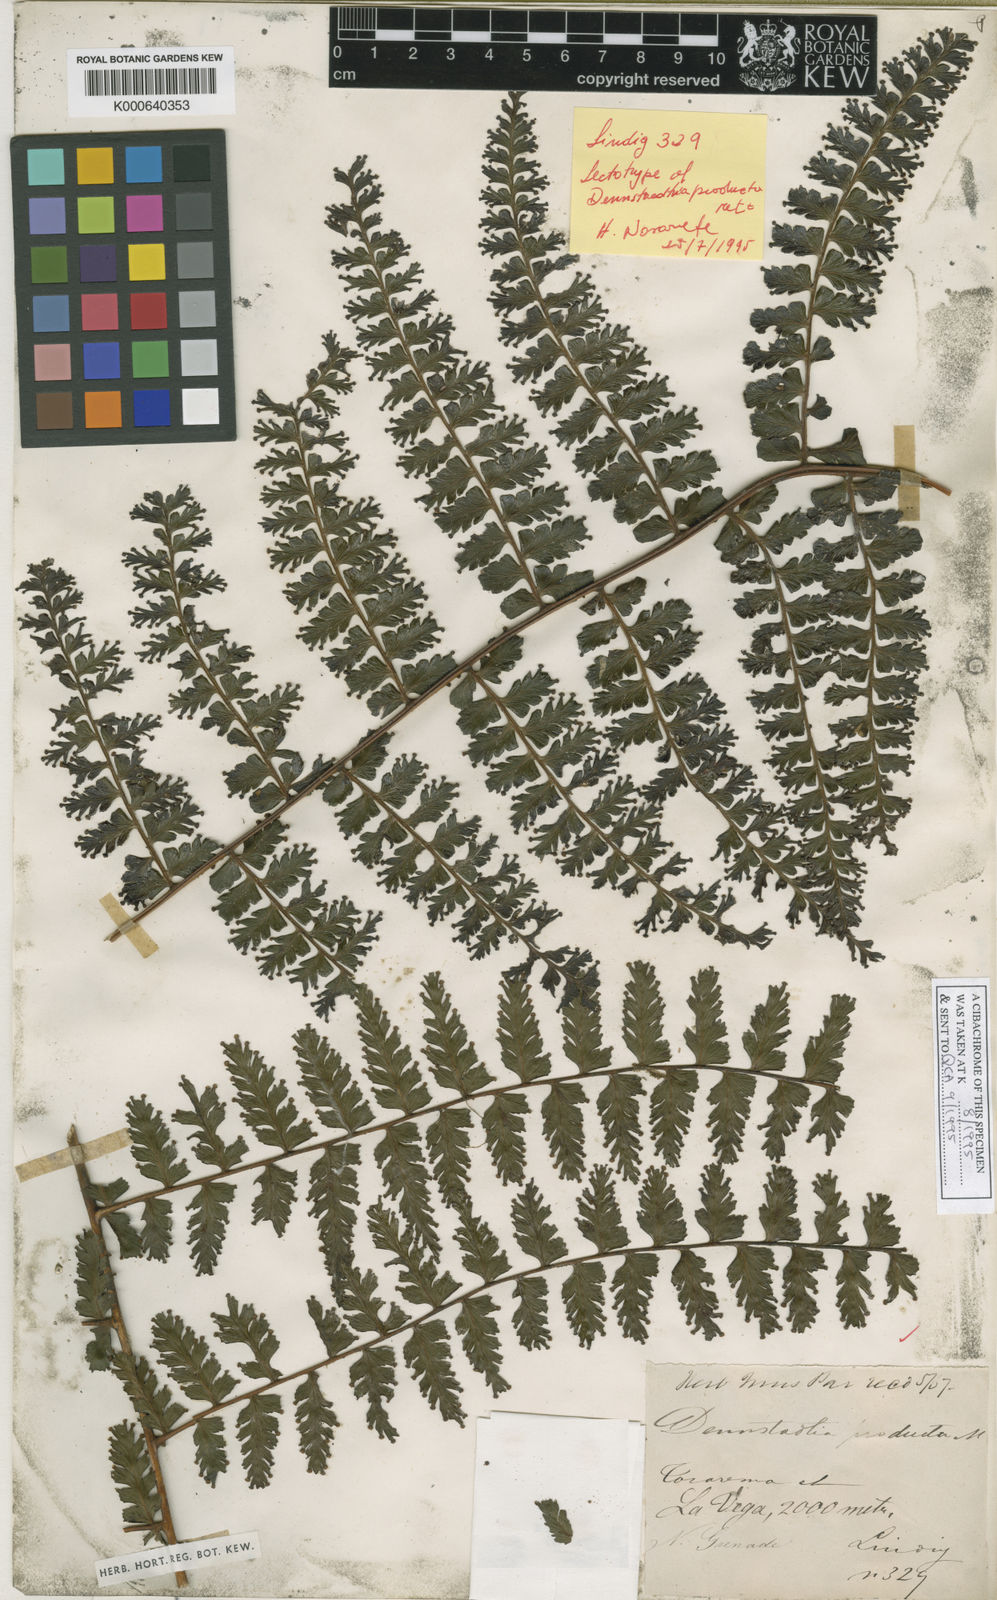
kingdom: Plantae
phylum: Tracheophyta
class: Polypodiopsida
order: Polypodiales
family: Dennstaedtiaceae
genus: Dennstaedtia
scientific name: Dennstaedtia producta
